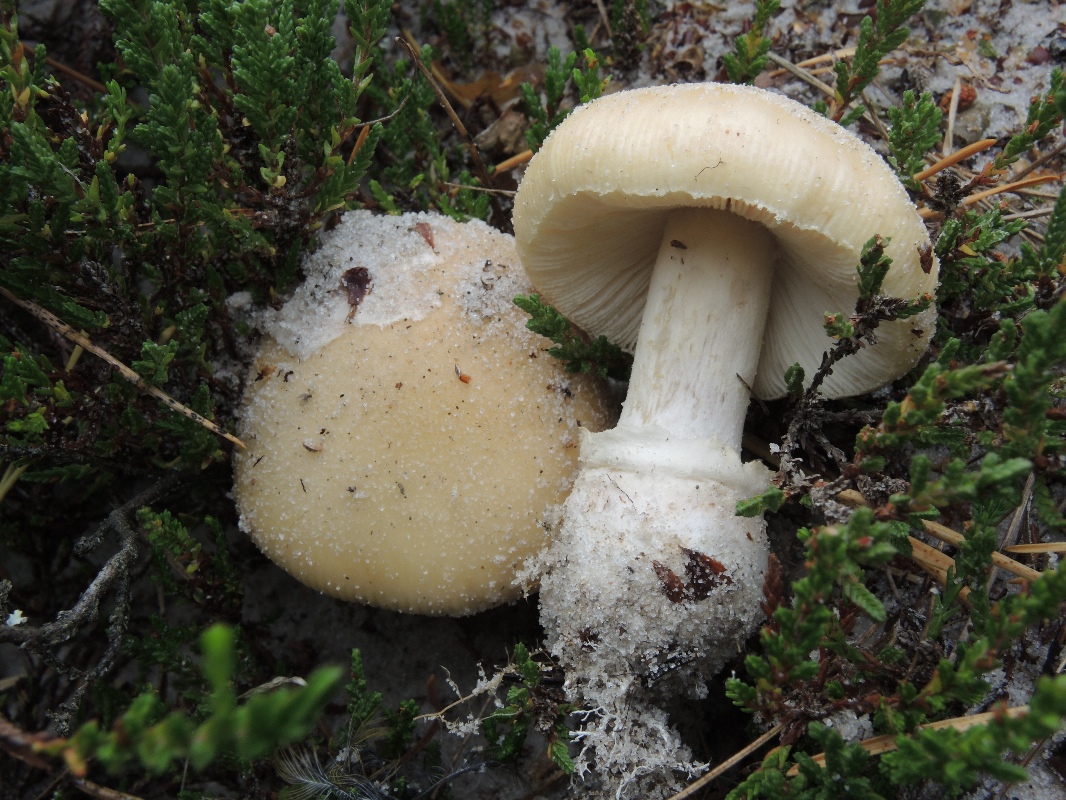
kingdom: Fungi
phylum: Basidiomycota
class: Agaricomycetes
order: Agaricales
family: Amanitaceae
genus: Amanita
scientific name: Amanita gemmata
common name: okkergul fluesvamp
